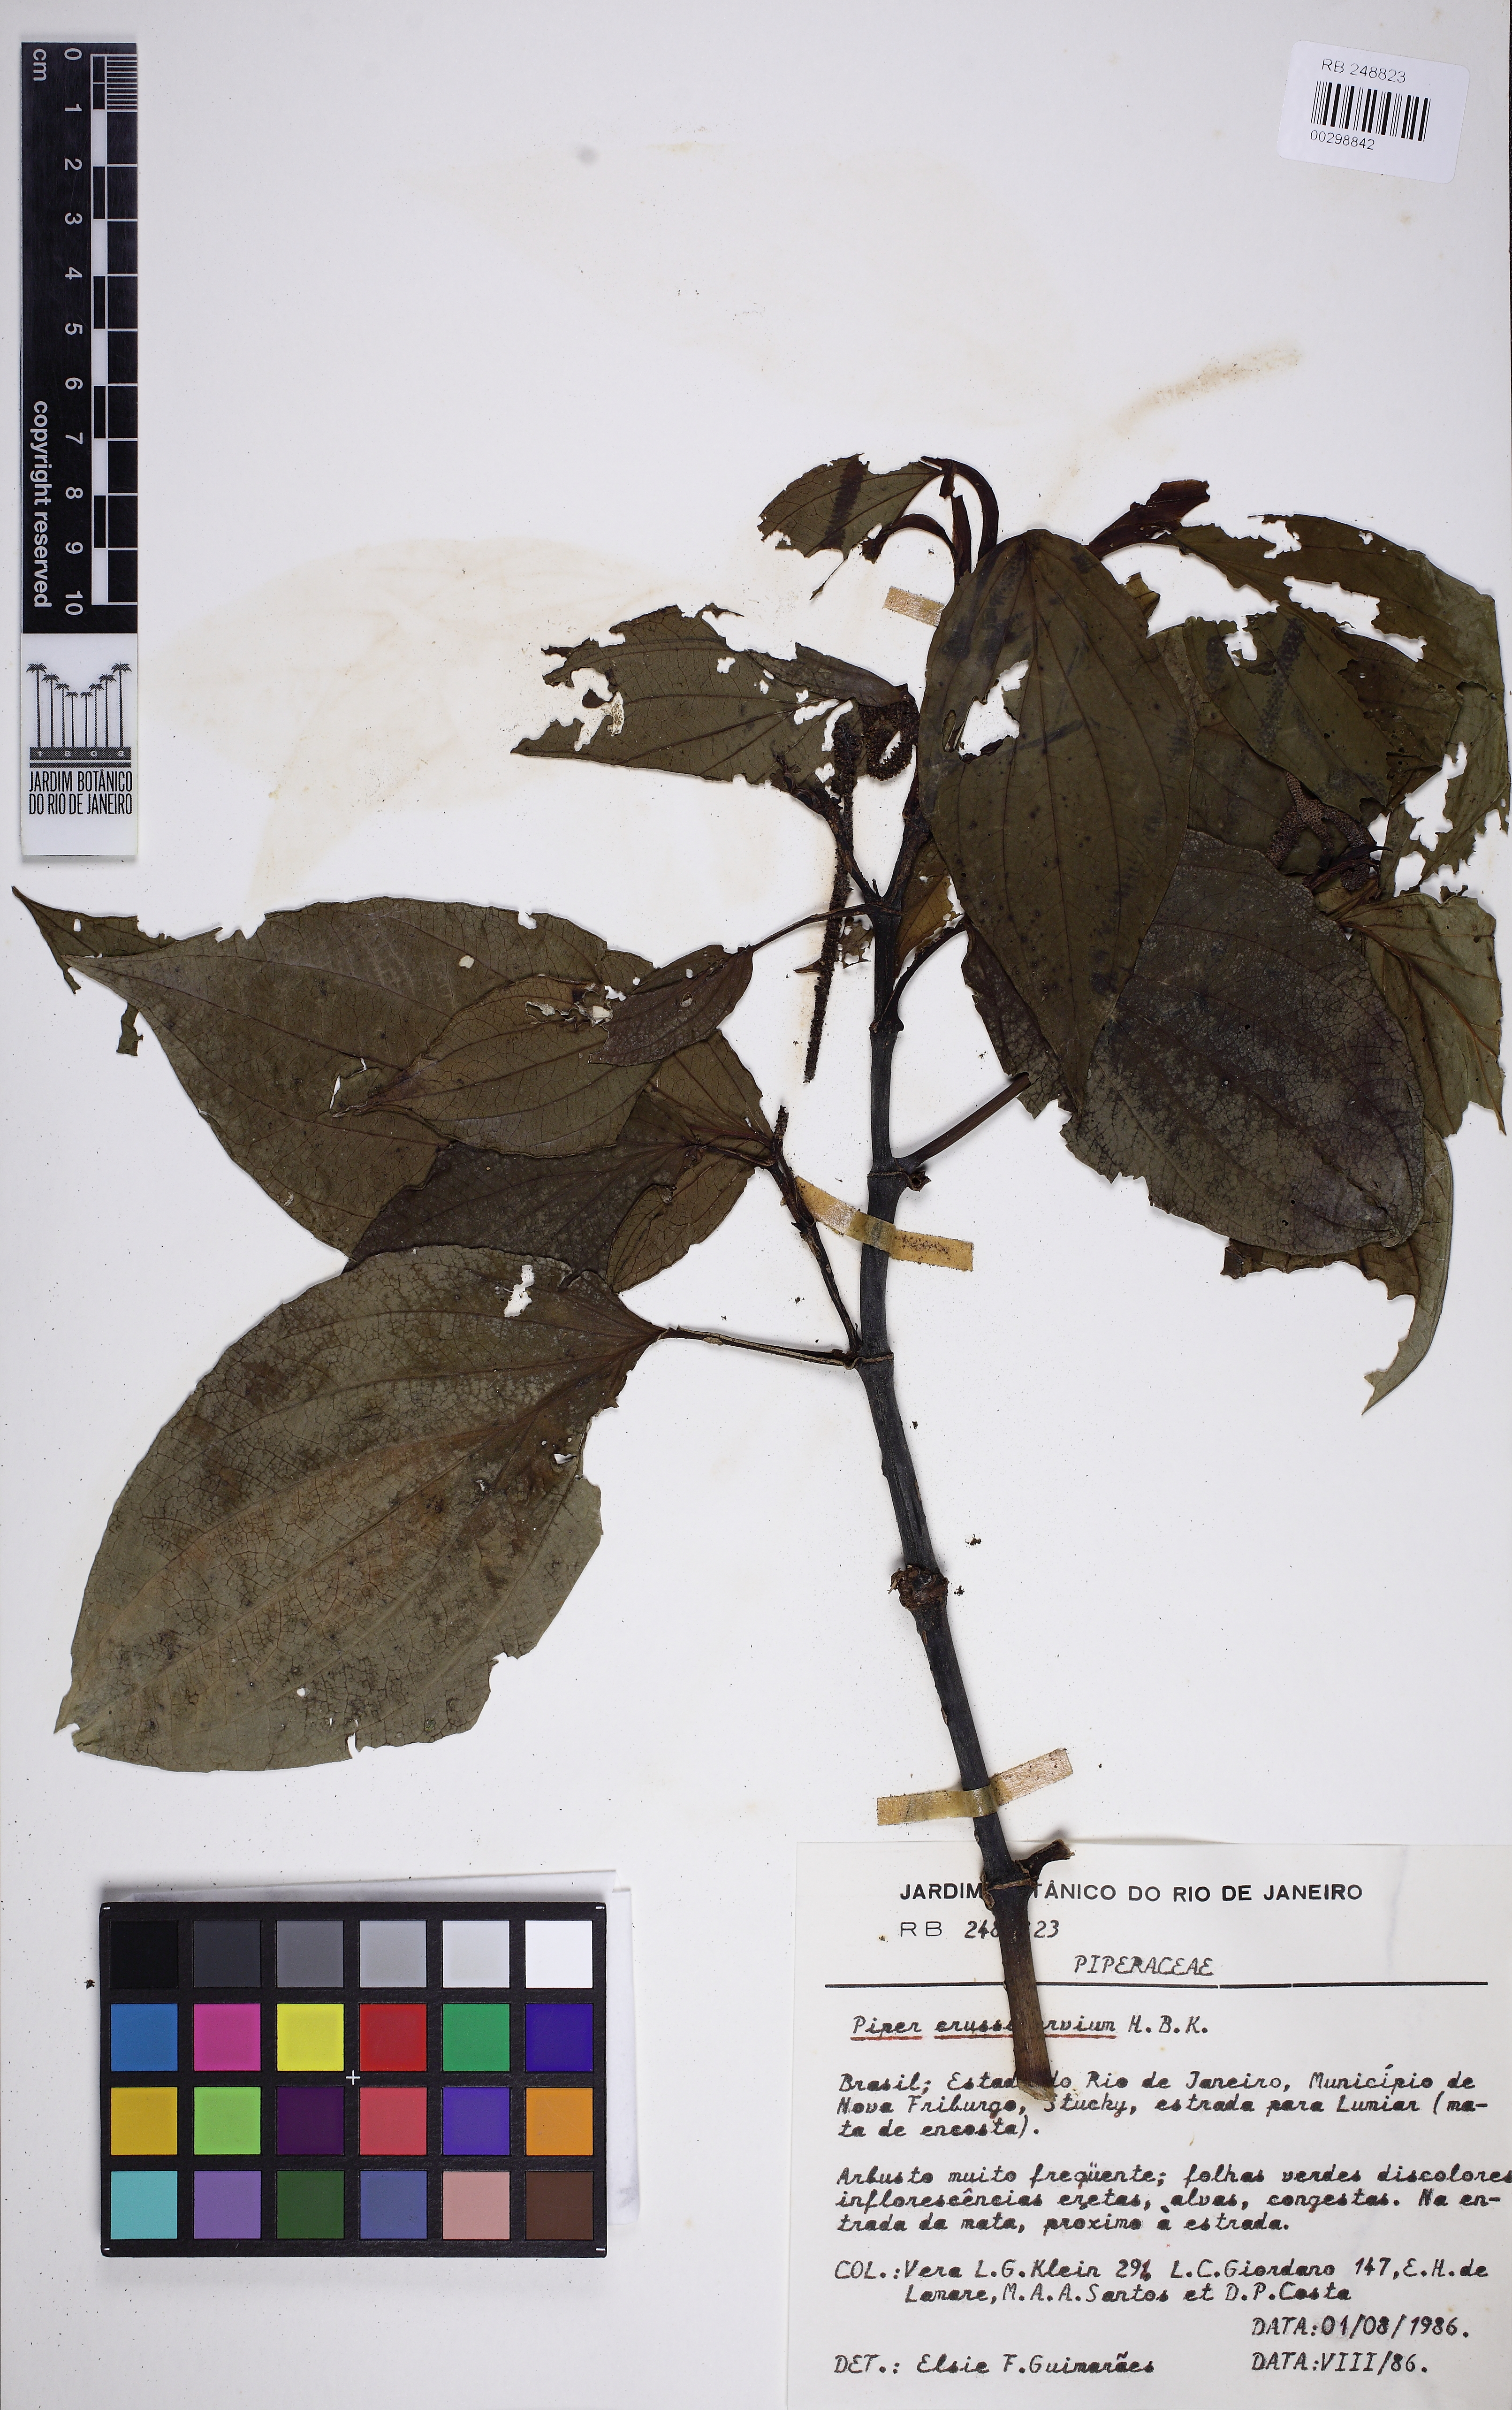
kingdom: Plantae
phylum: Tracheophyta
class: Magnoliopsida
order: Piperales
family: Piperaceae
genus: Piper
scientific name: Piper crassinervium
